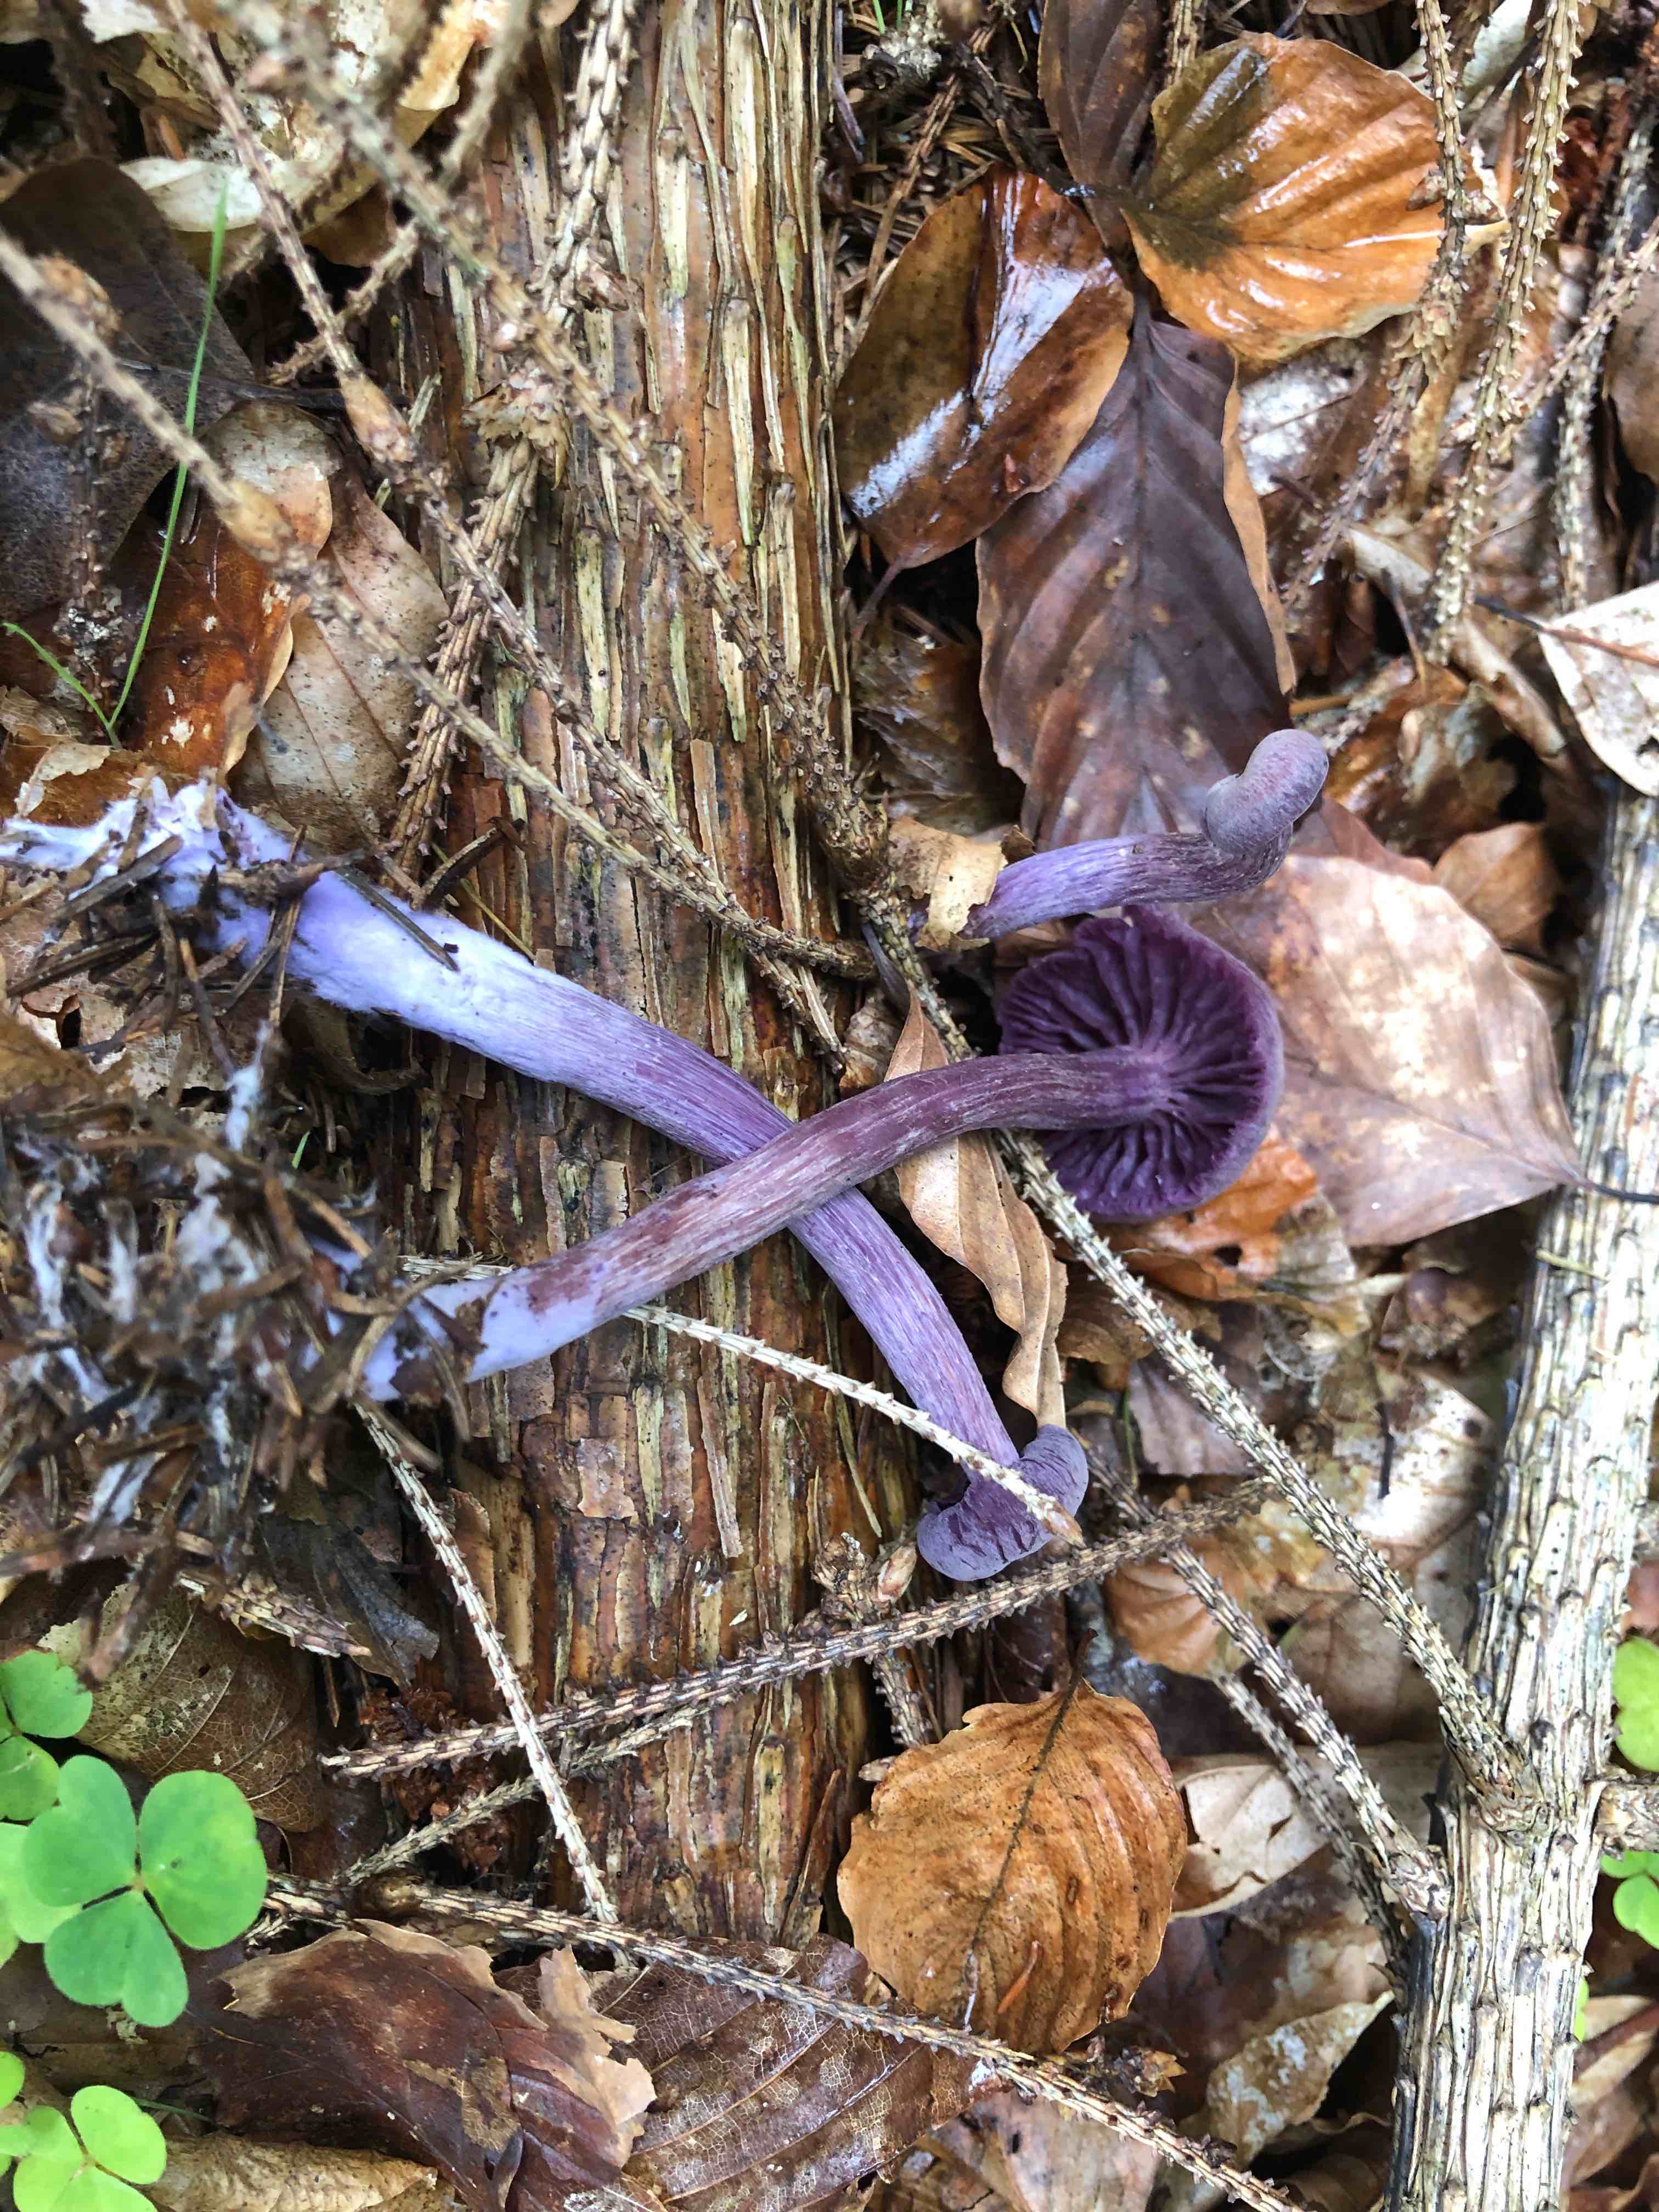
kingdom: Fungi
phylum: Basidiomycota
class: Agaricomycetes
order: Agaricales
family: Hydnangiaceae
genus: Laccaria
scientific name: Laccaria amethystina
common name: violet ametysthat
